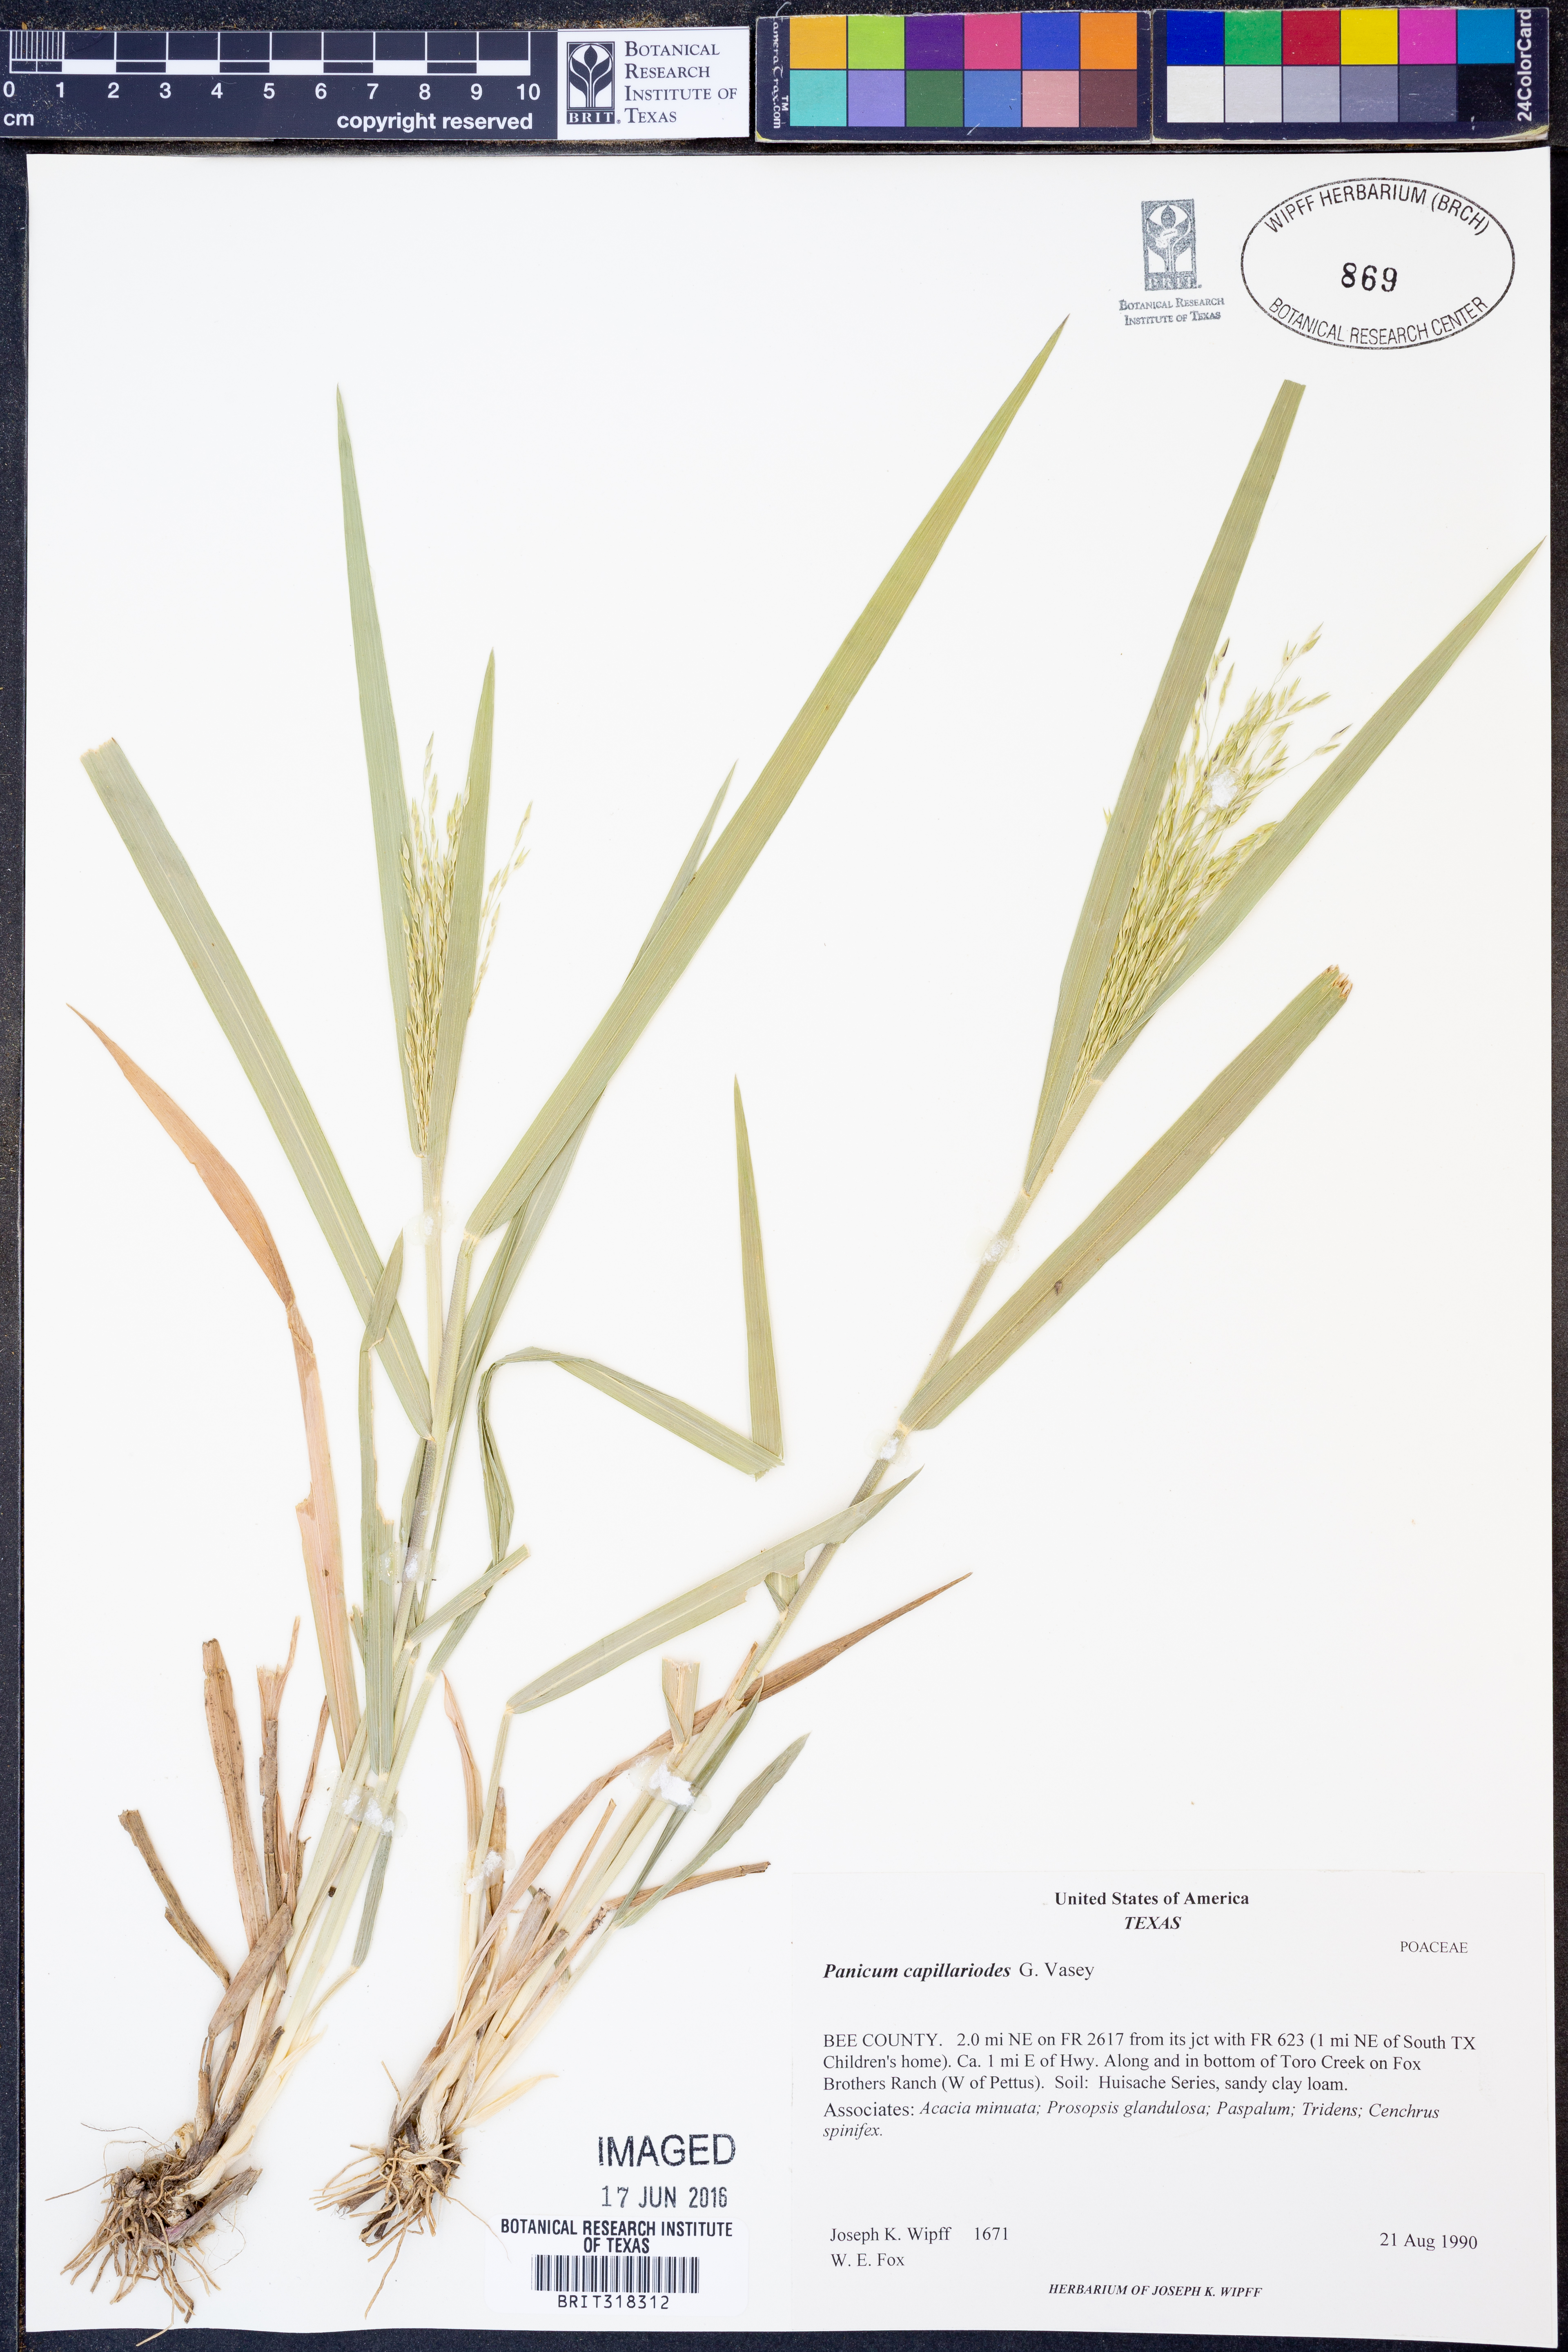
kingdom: Plantae
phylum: Tracheophyta
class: Liliopsida
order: Poales
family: Poaceae
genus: Panicum
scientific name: Panicum capillarioides
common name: Long-beak witchgrass
